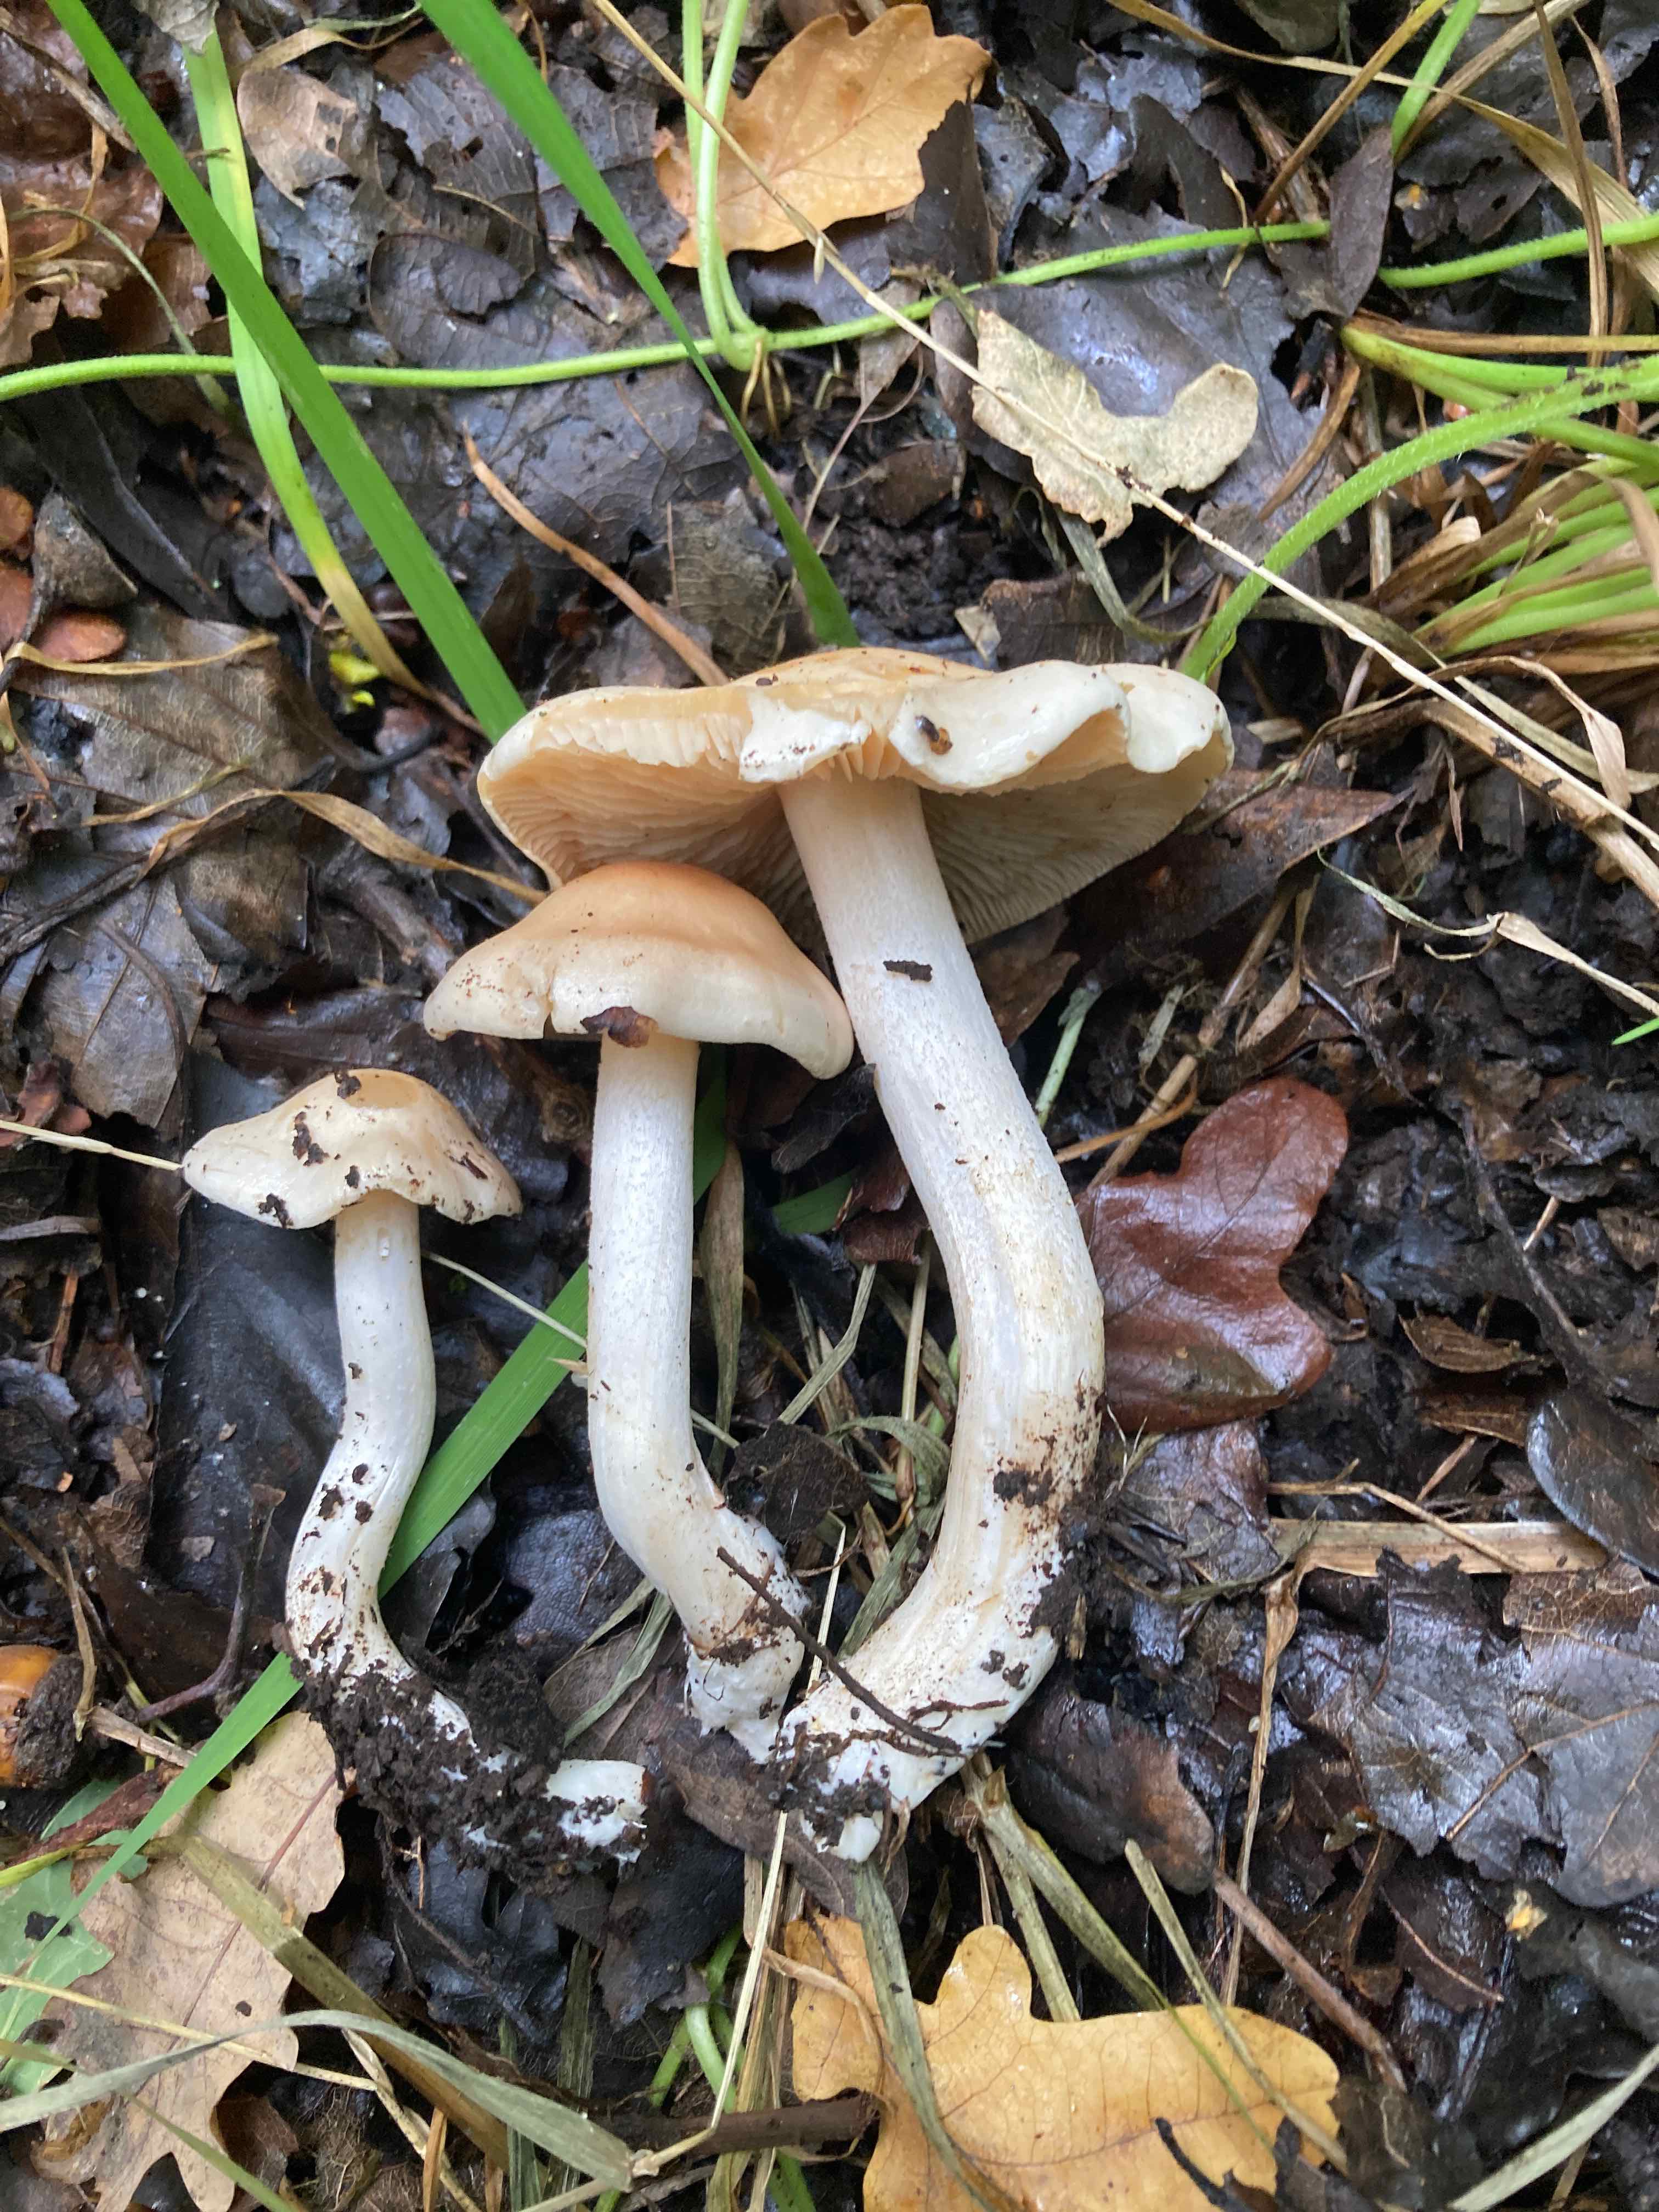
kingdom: Fungi
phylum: Basidiomycota
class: Agaricomycetes
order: Agaricales
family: Hymenogastraceae
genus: Hebeloma
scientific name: Hebeloma
